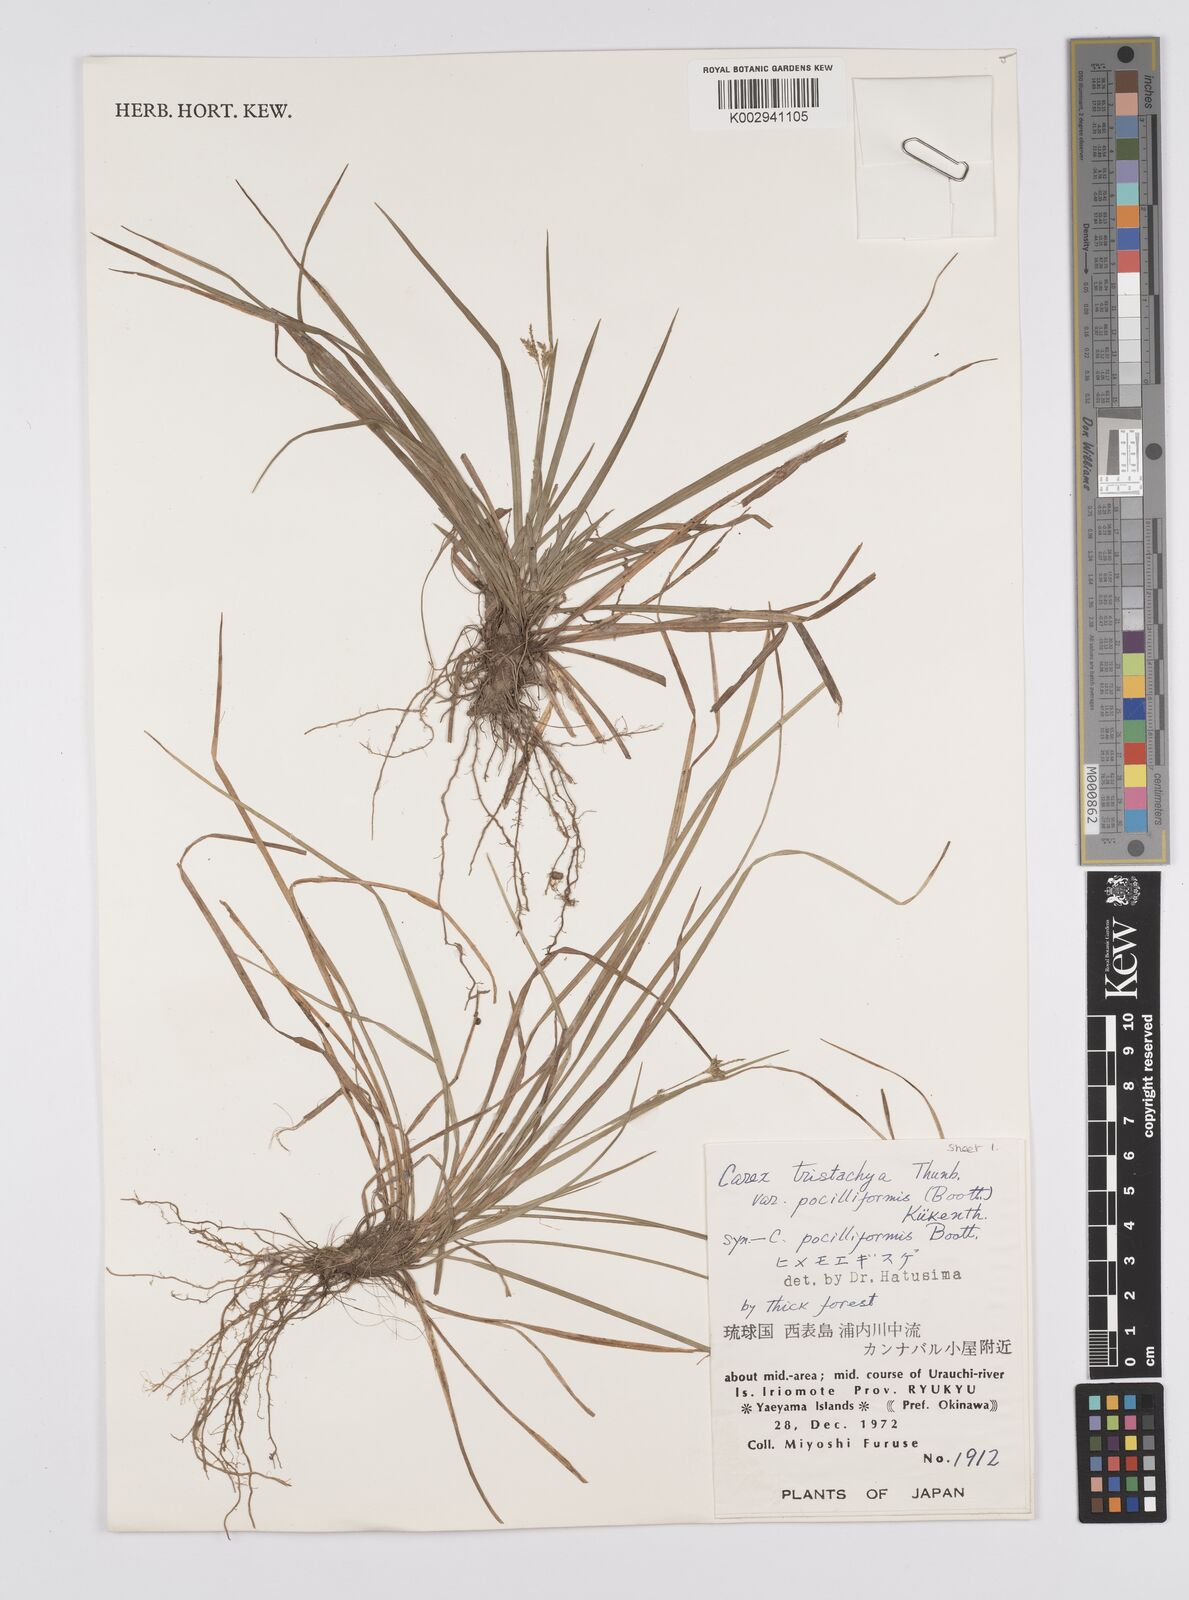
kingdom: Plantae
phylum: Tracheophyta
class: Liliopsida
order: Poales
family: Cyperaceae
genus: Carex
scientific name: Carex tristachya
